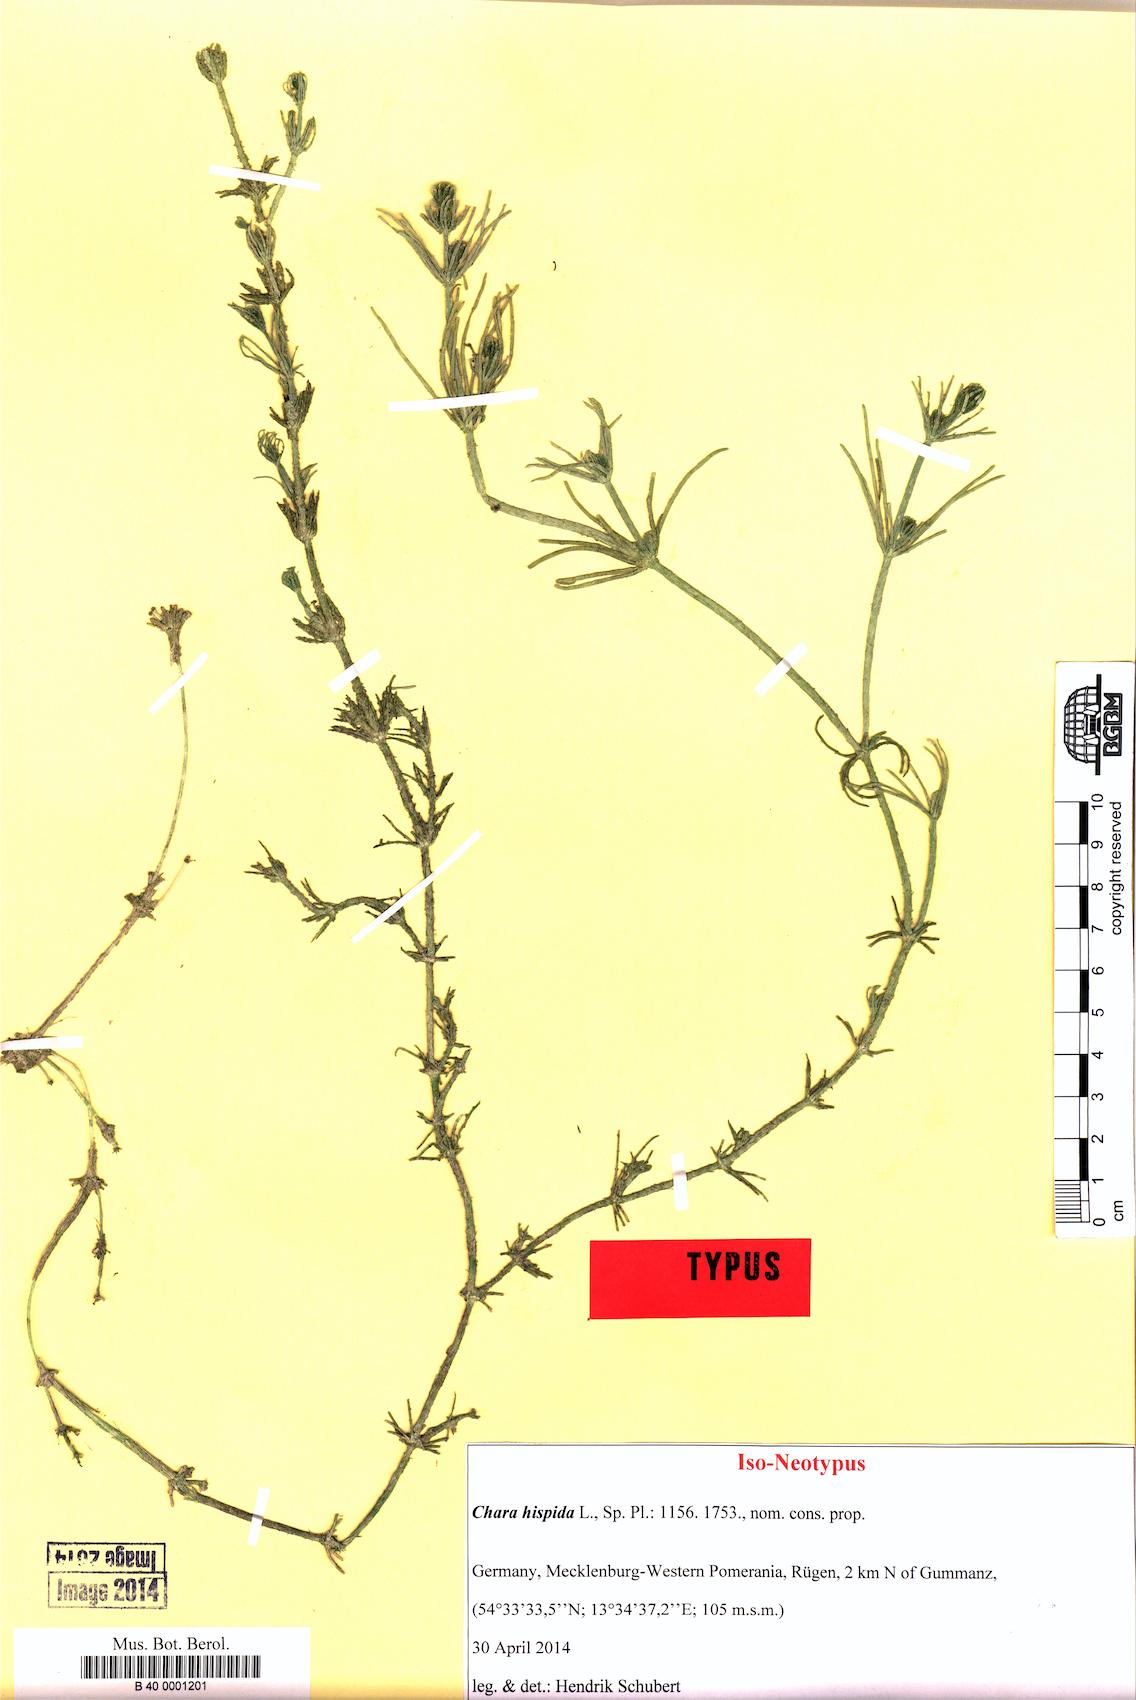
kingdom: Plantae
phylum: Charophyta
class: Charophyceae
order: Charales
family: Characeae
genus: Chara
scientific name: Chara hispida
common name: Bristly stonewort
